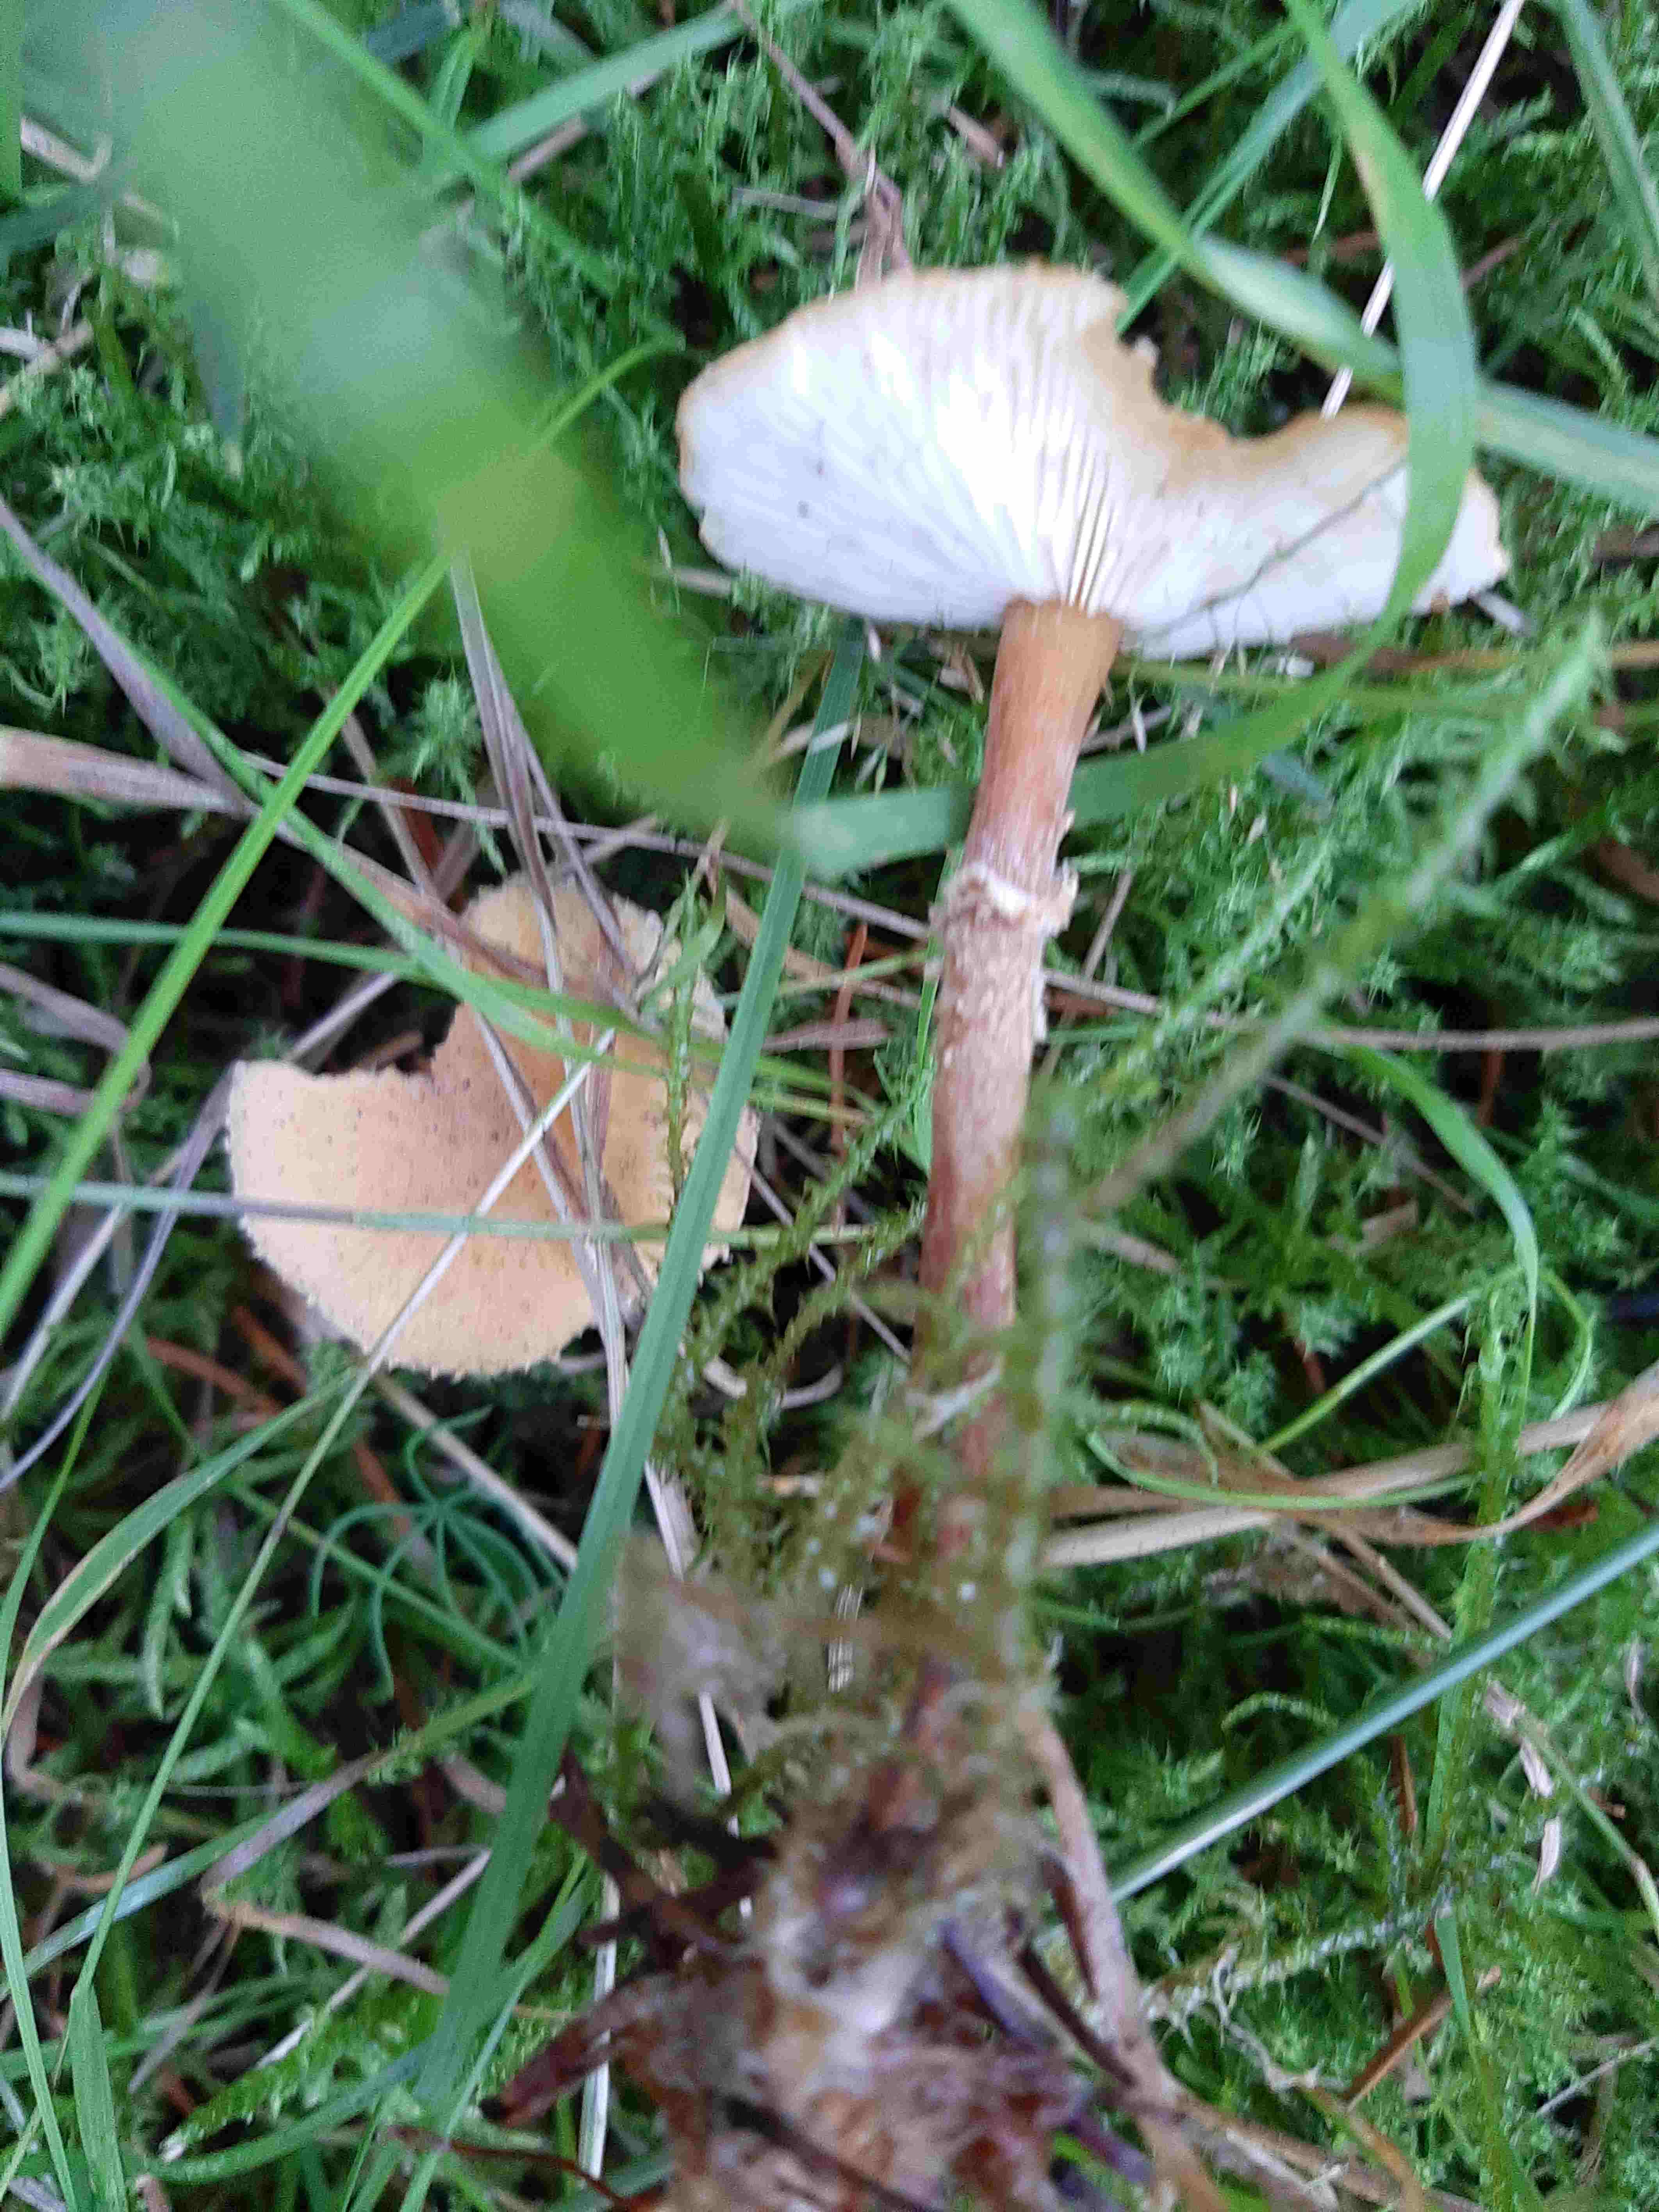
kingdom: Fungi
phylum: Basidiomycota
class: Agaricomycetes
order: Agaricales
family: Tricholomataceae
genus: Cystoderma
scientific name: Cystoderma amianthinum
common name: okkergul grynhat
